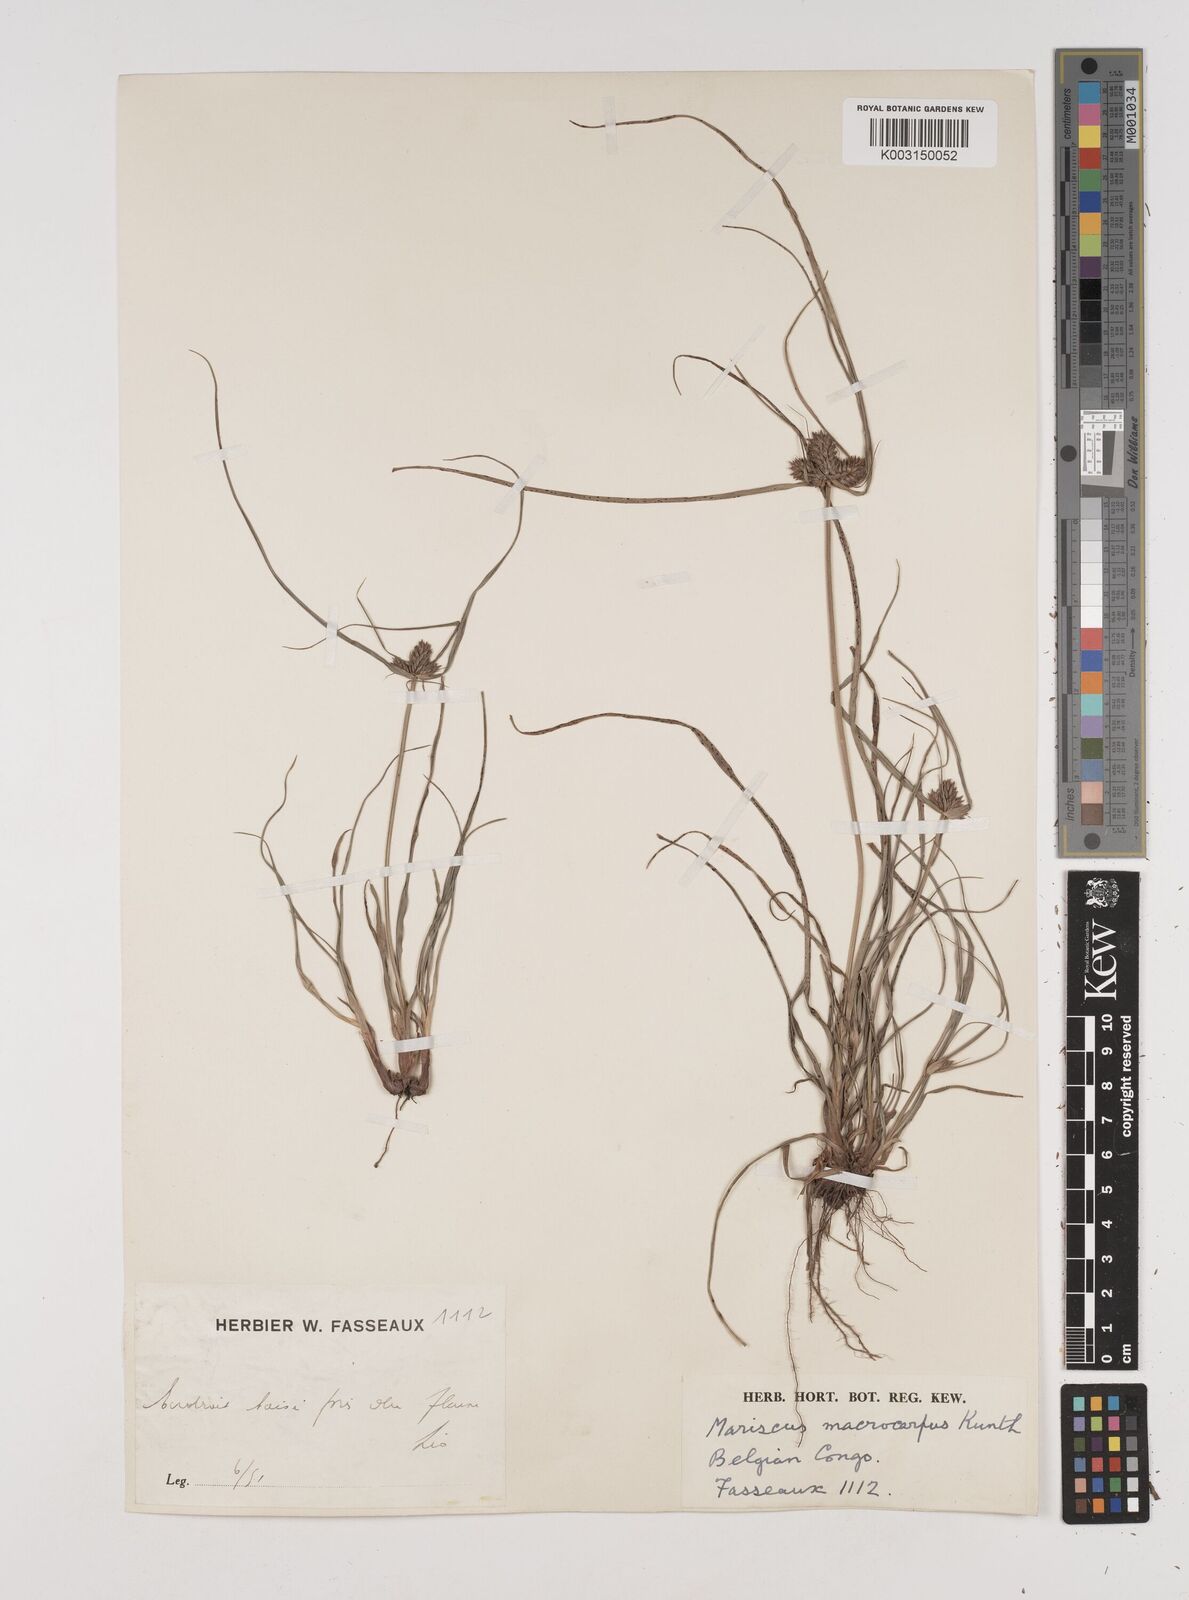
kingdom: Plantae
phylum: Tracheophyta
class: Liliopsida
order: Poales
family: Cyperaceae
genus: Cyperus
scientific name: Cyperus macrocarpus
